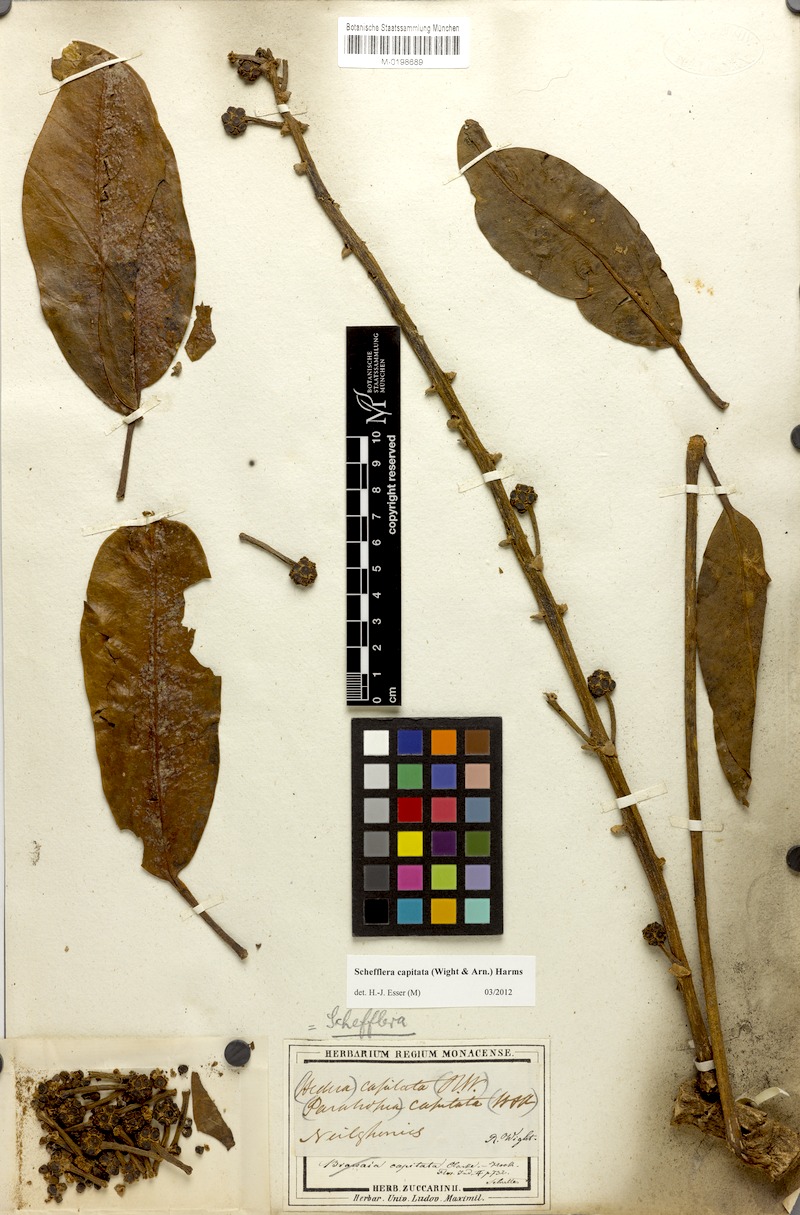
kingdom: Plantae
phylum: Tracheophyta
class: Magnoliopsida
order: Apiales
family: Araliaceae
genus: Heptapleurum
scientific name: Heptapleurum capitatum
